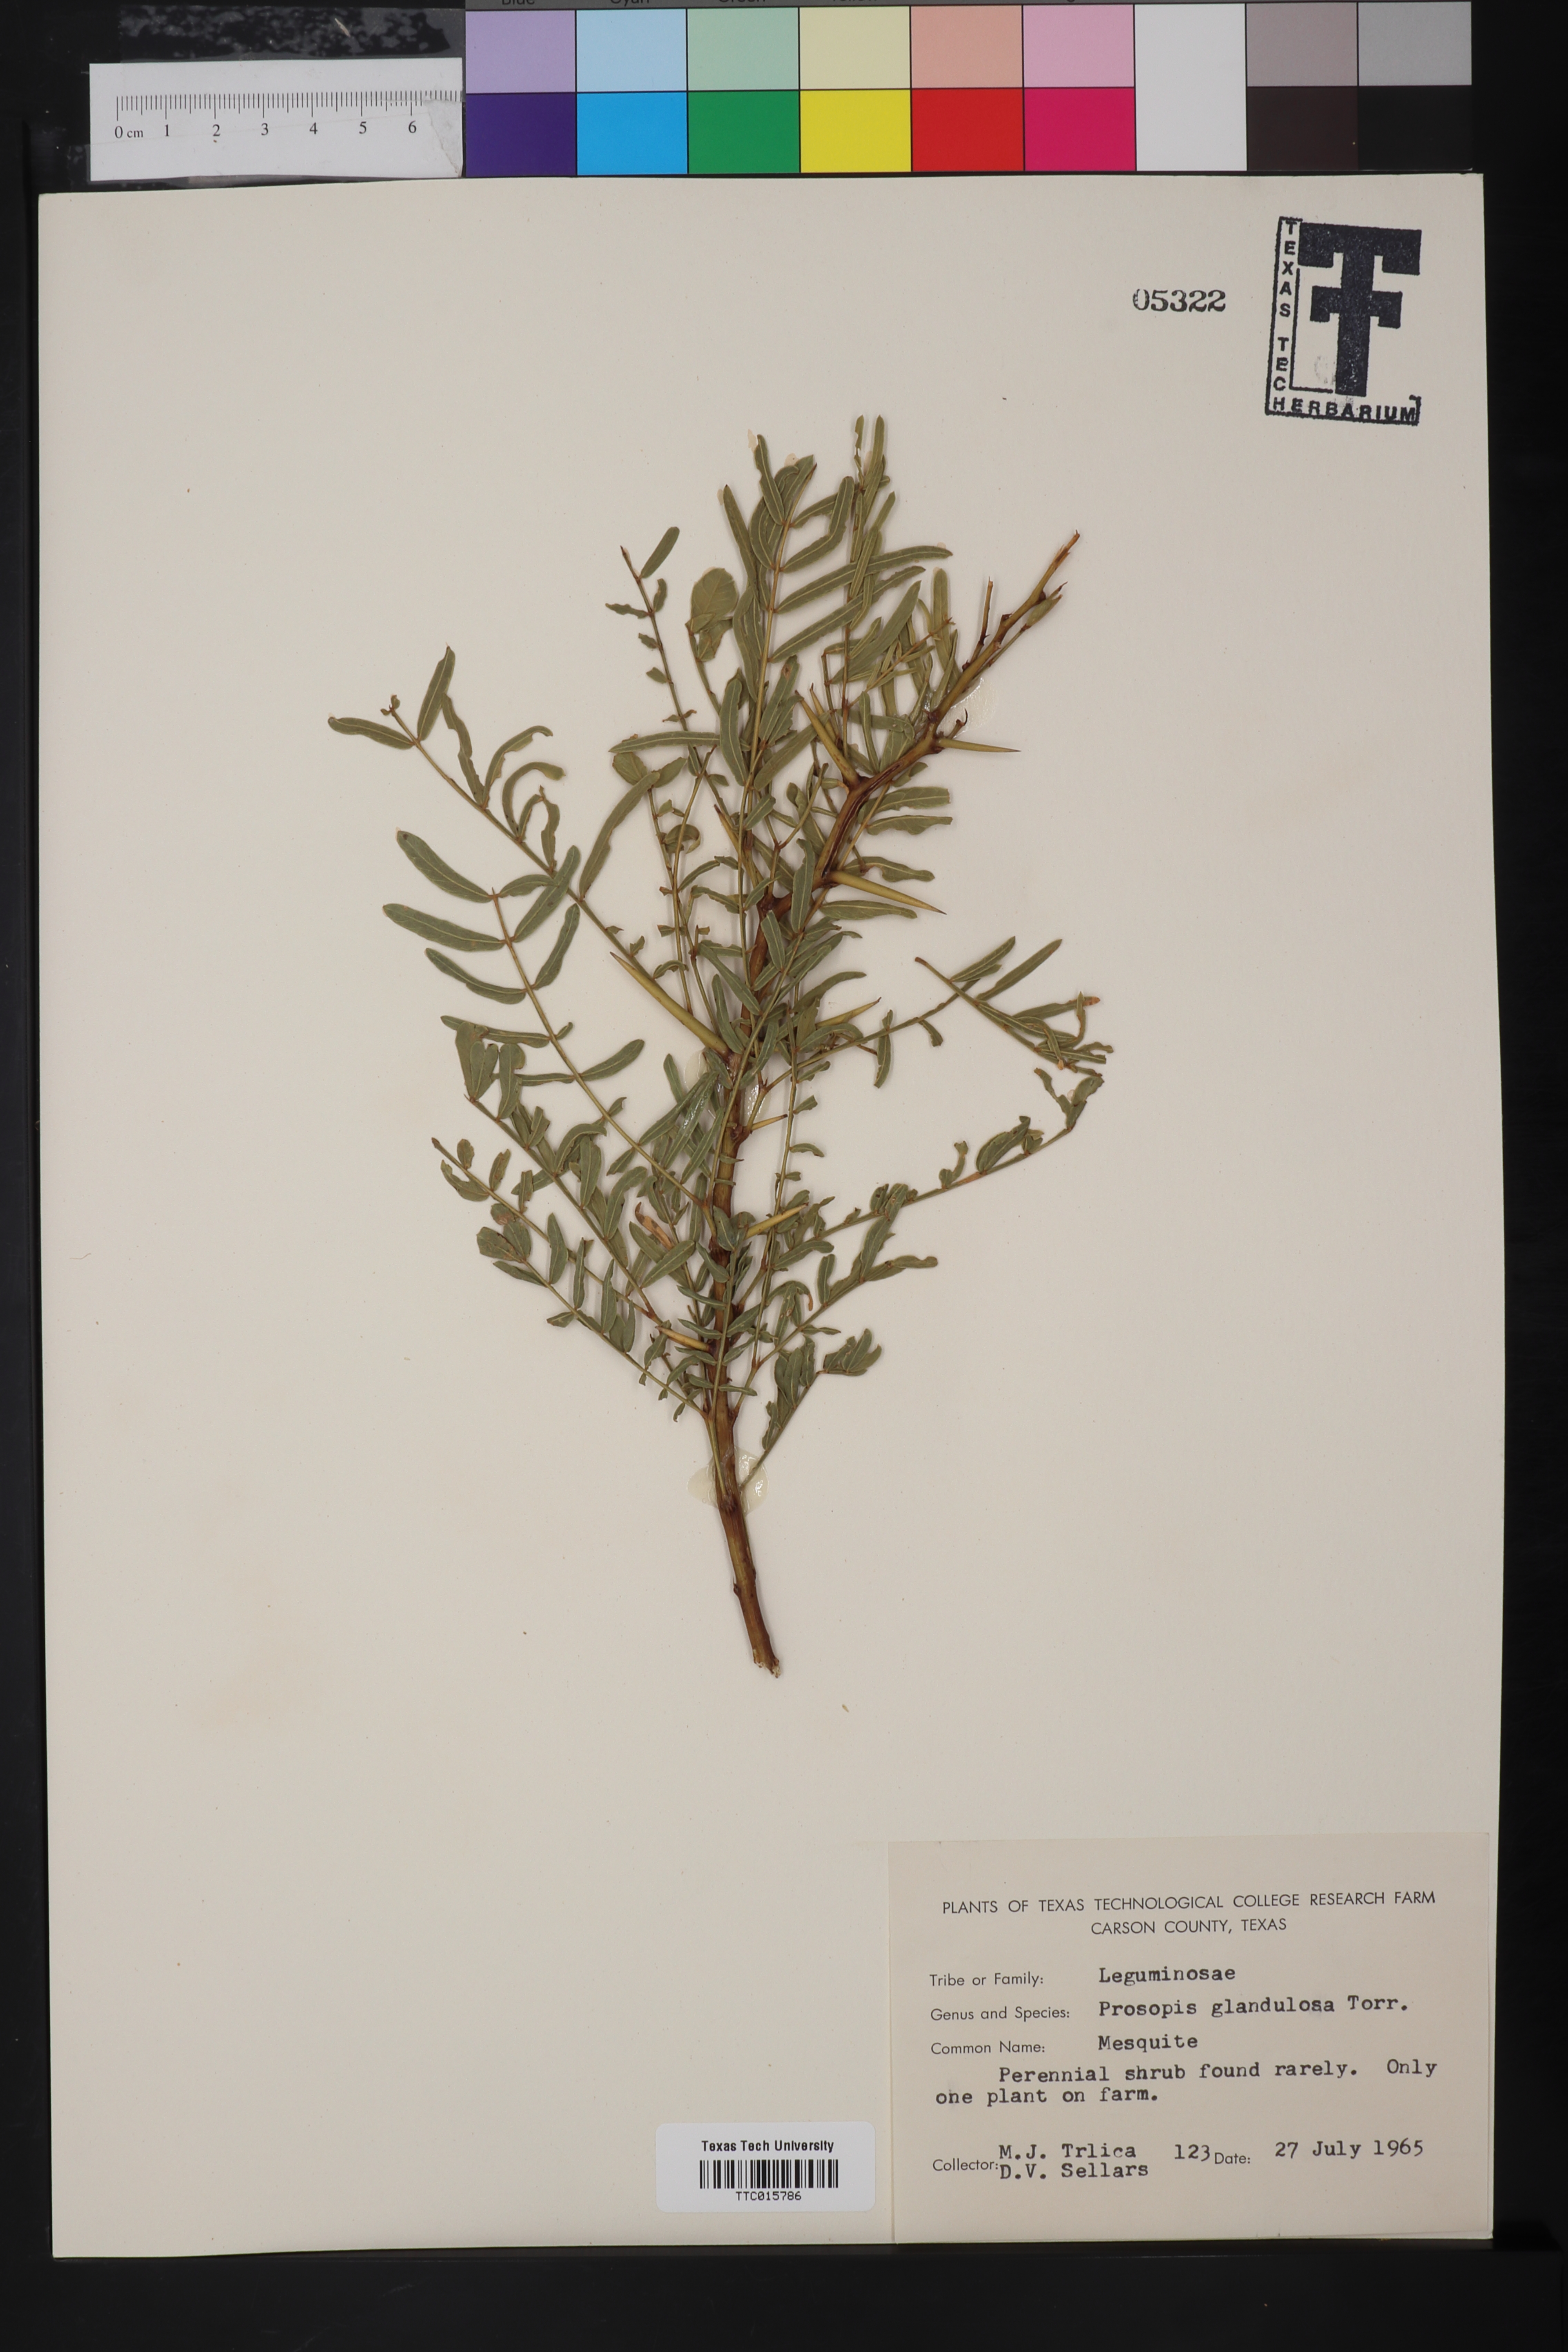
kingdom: Plantae
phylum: Tracheophyta
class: Magnoliopsida
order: Fabales
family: Fabaceae
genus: Prosopis
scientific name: Prosopis glandulosa
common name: Honey mesquite
